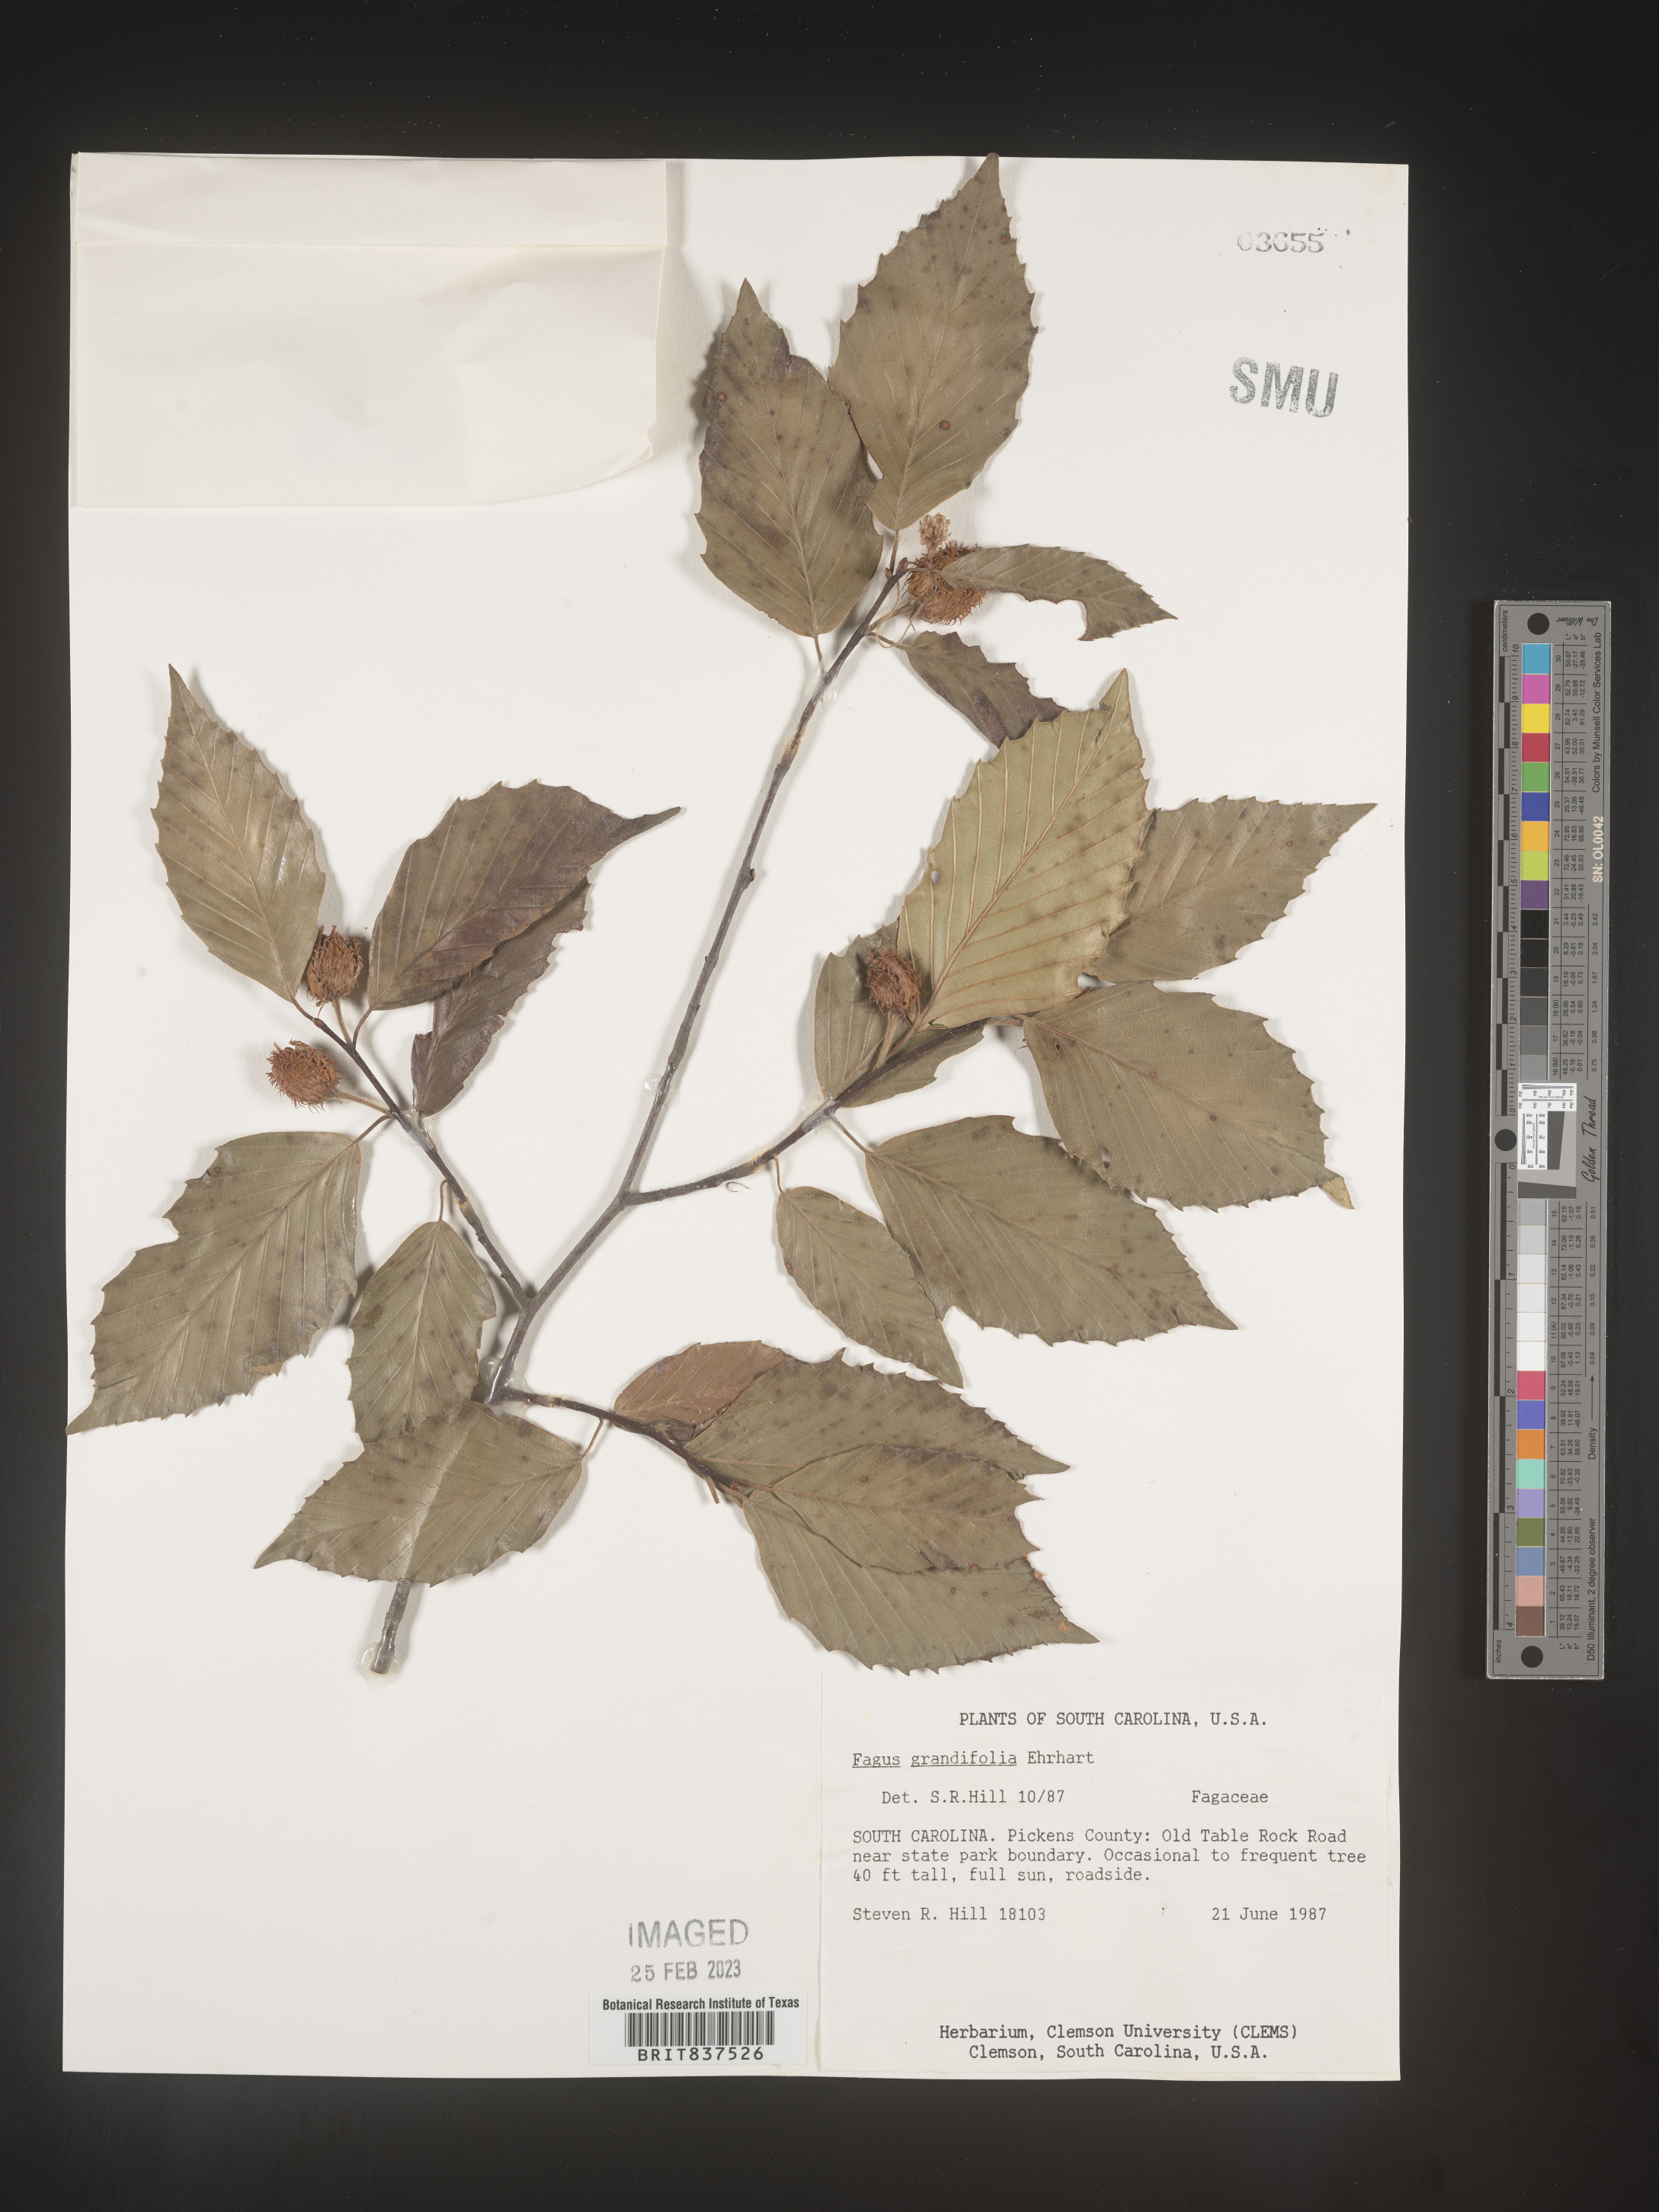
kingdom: Plantae
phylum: Tracheophyta
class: Magnoliopsida
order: Fagales
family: Fagaceae
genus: Fagus
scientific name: Fagus grandifolia
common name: American beech
